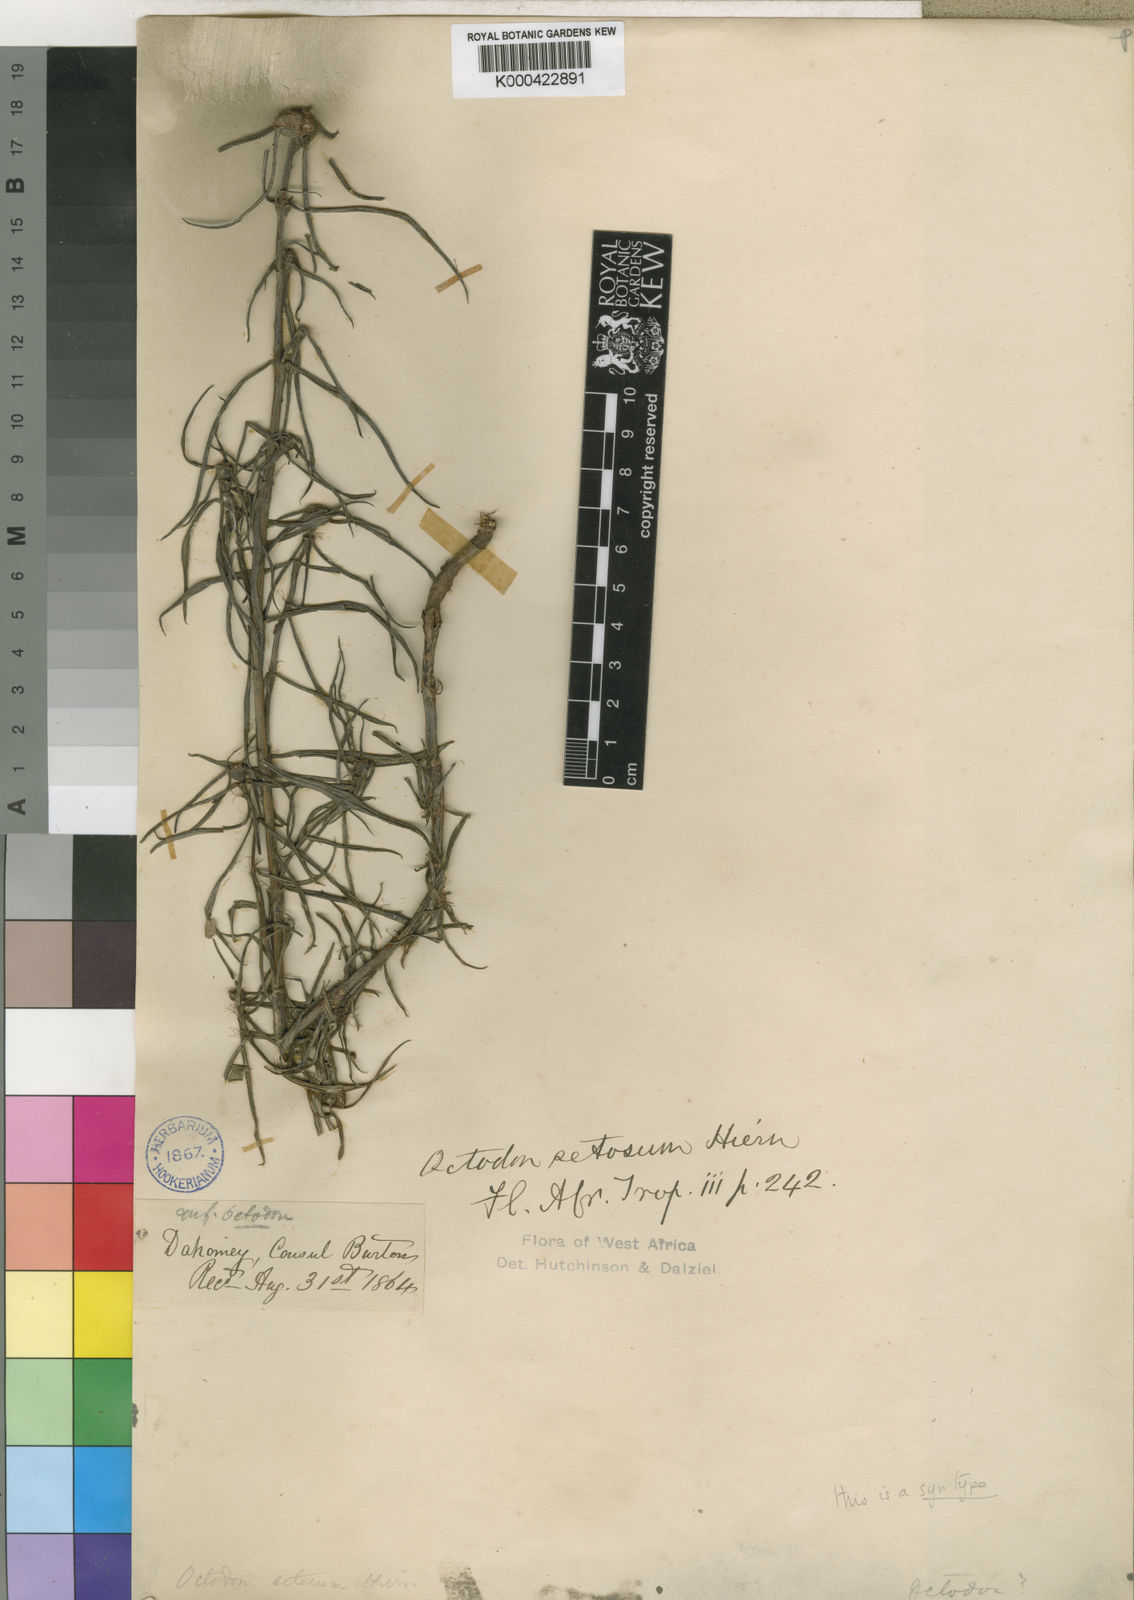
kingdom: Plantae
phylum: Tracheophyta
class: Magnoliopsida
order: Gentianales
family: Rubiaceae
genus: Spermacoce
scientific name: Spermacoce octodon
